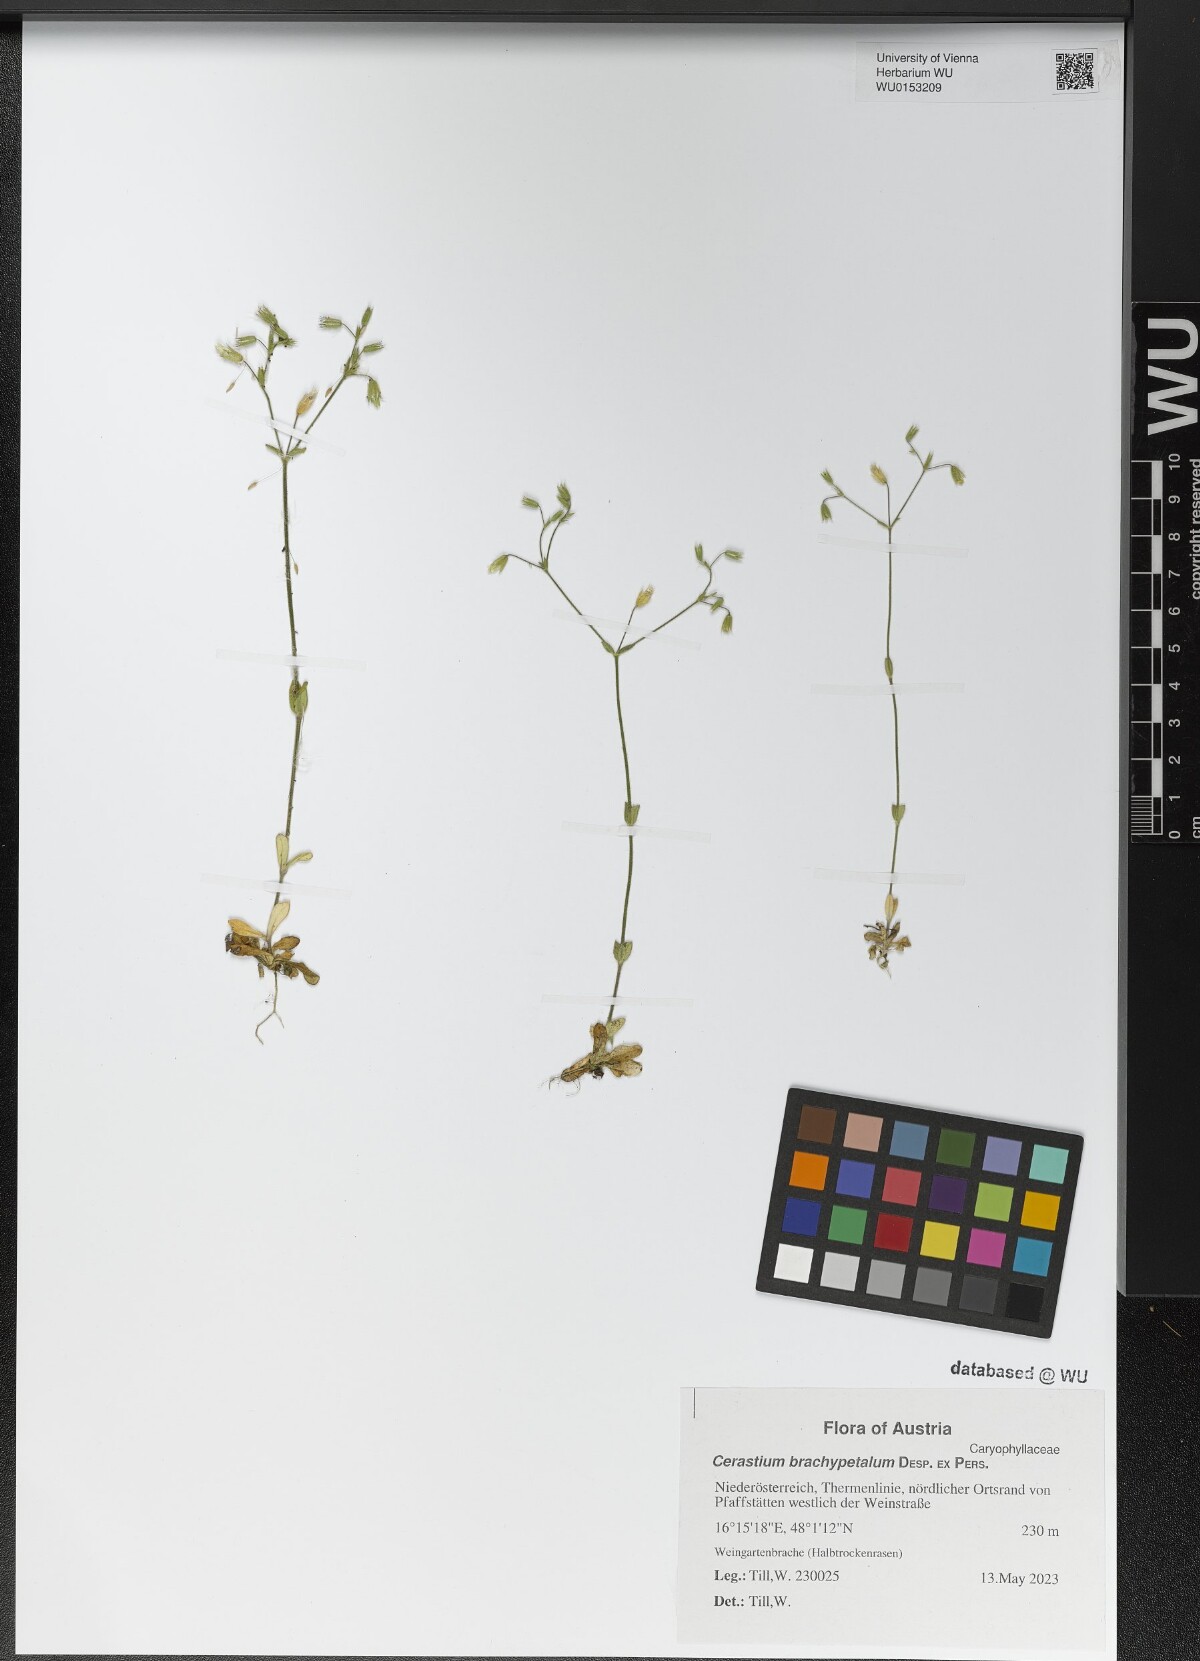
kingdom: Plantae
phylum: Tracheophyta
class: Magnoliopsida
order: Caryophyllales
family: Caryophyllaceae
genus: Cerastium
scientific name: Cerastium brachypetalum
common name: Grey mouse-ear
